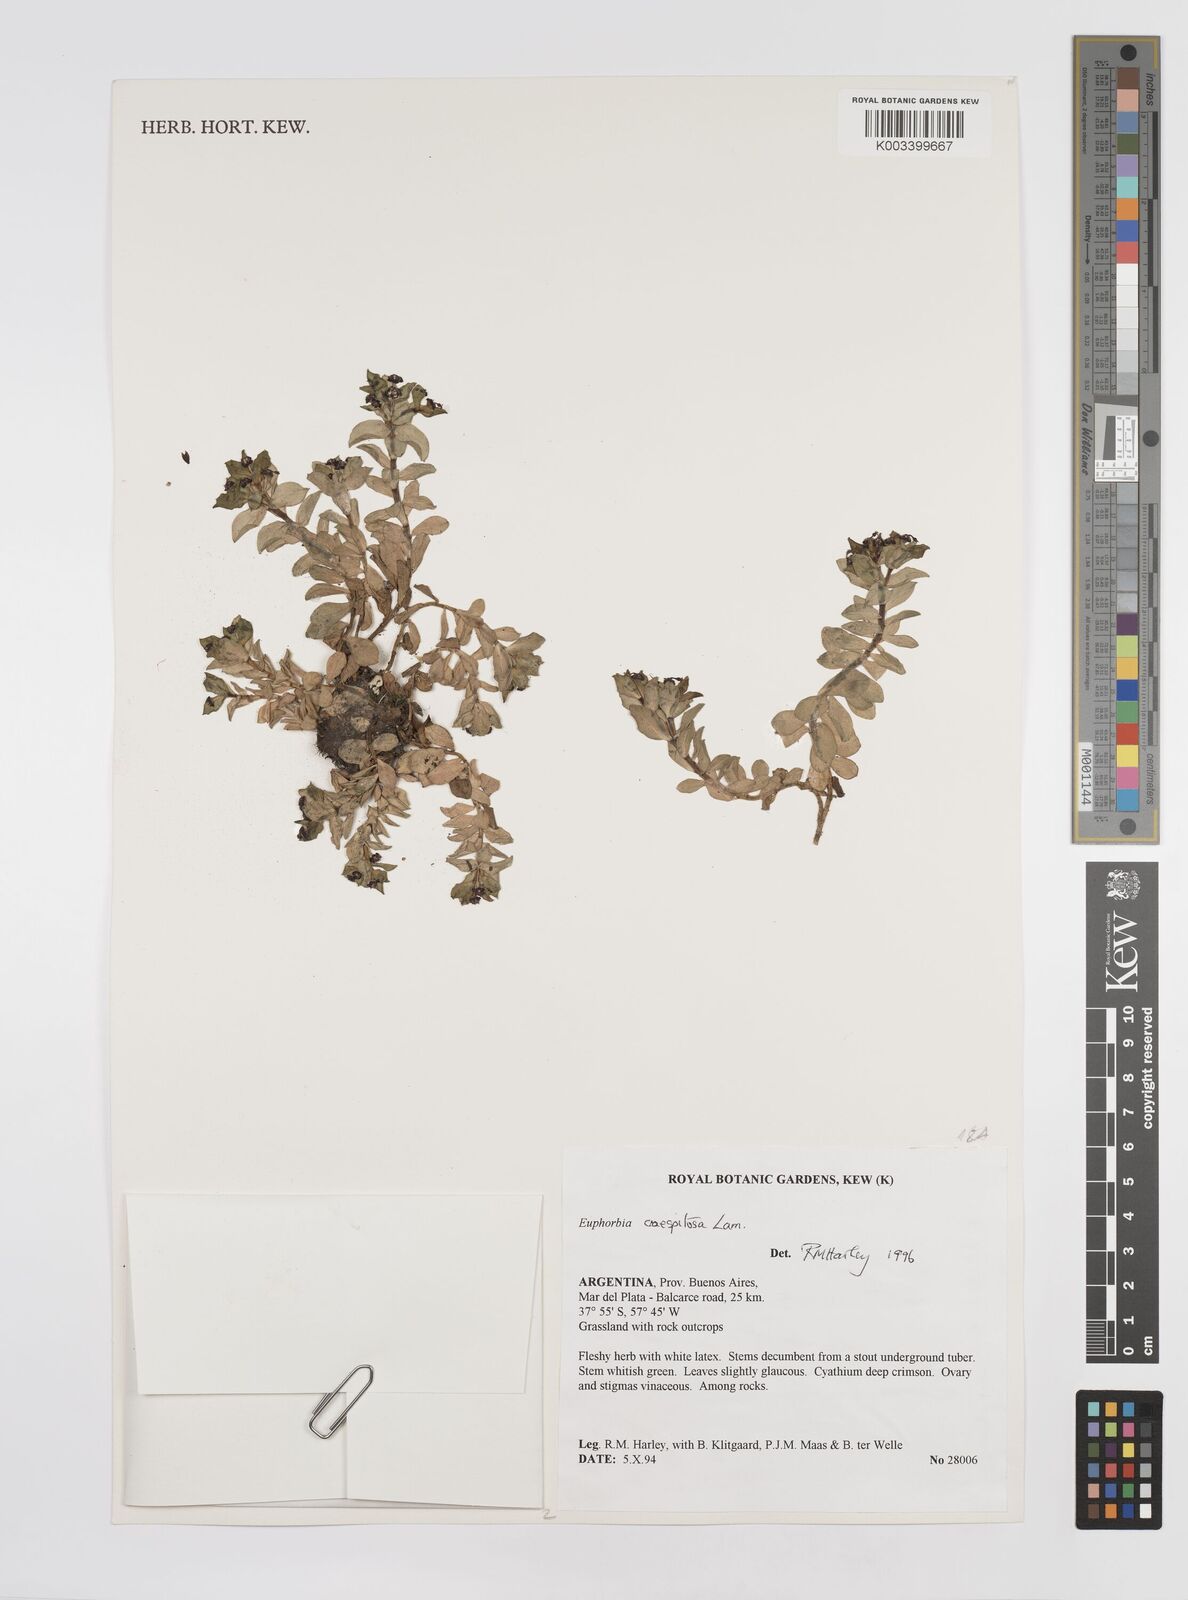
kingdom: Plantae
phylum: Tracheophyta
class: Magnoliopsida
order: Malpighiales
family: Euphorbiaceae
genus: Euphorbia
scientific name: Euphorbia segetalis
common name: Corn spurge
